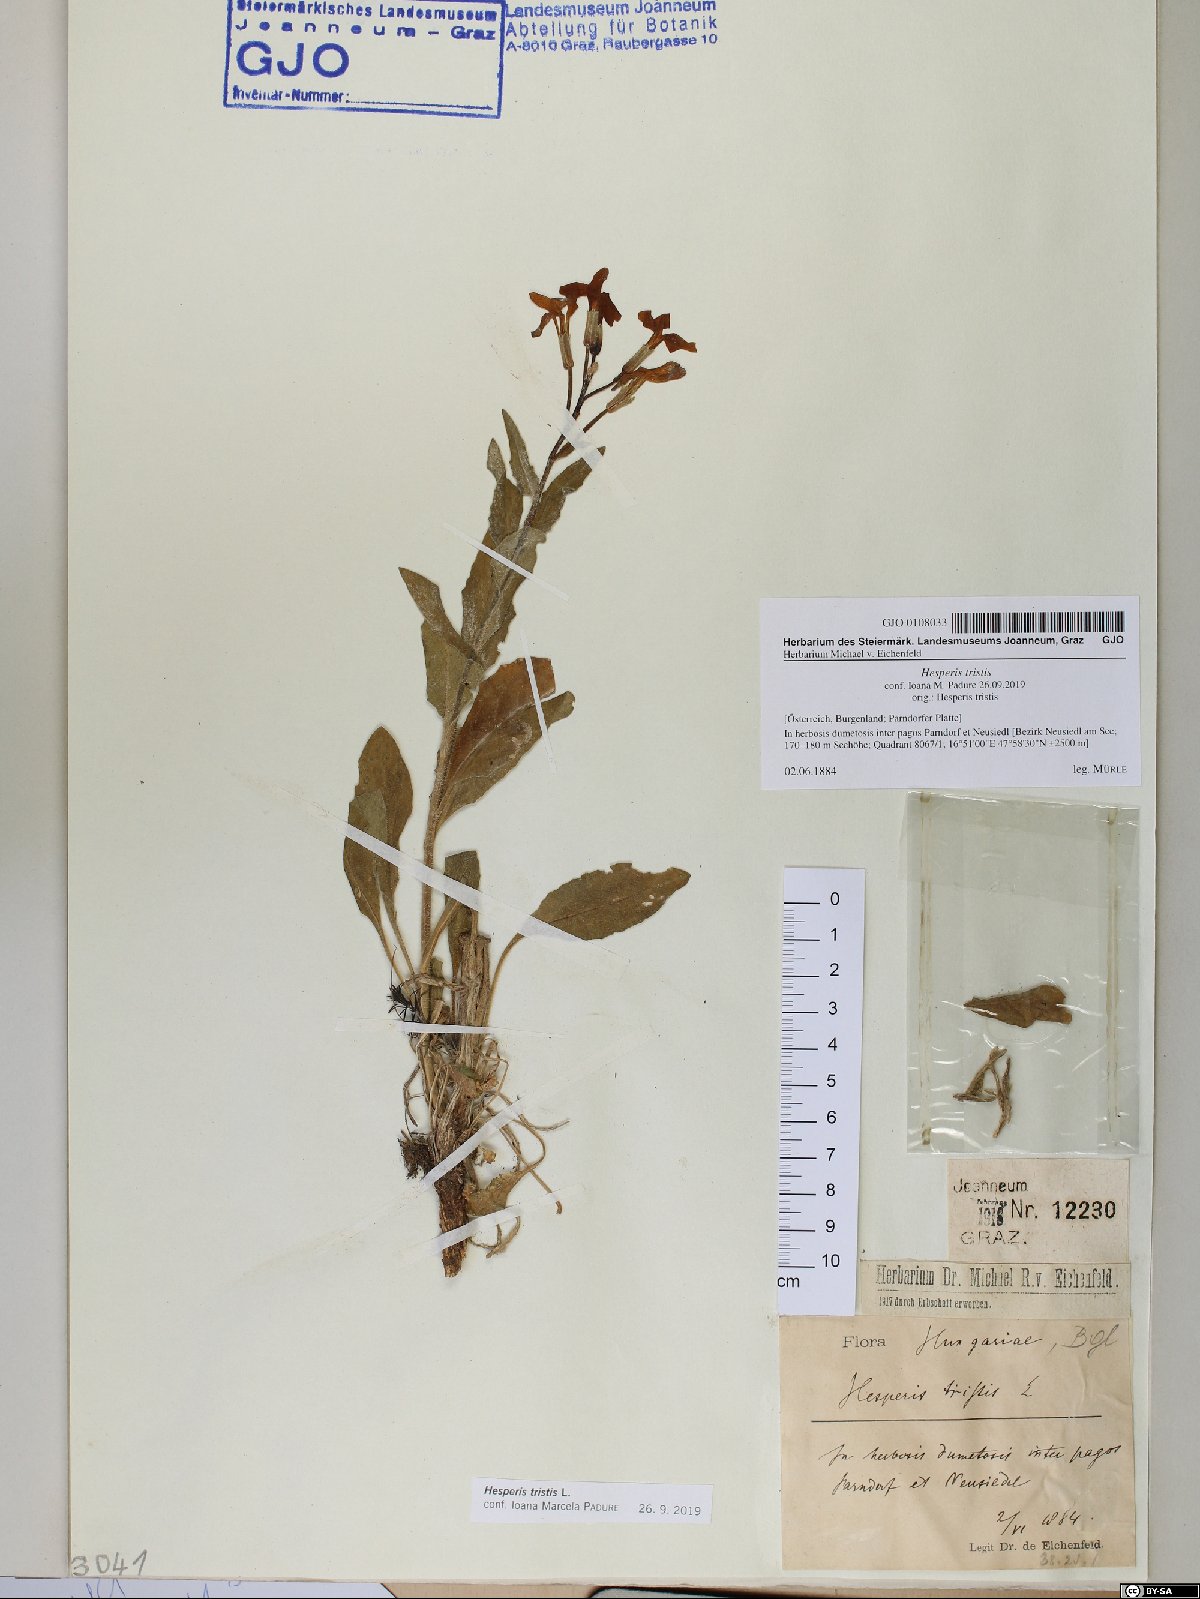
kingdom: Plantae
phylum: Tracheophyta
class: Magnoliopsida
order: Brassicales
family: Brassicaceae
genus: Hesperis
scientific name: Hesperis tristis
